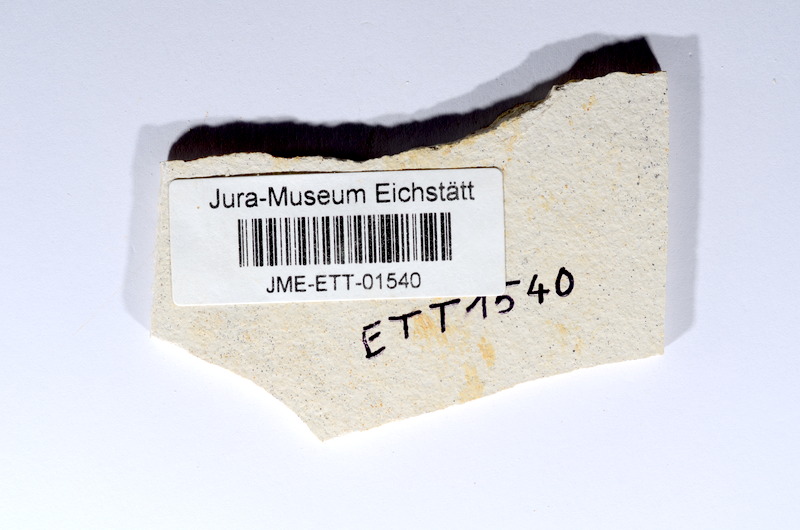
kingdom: Animalia
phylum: Chordata
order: Salmoniformes
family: Orthogonikleithridae
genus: Orthogonikleithrus
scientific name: Orthogonikleithrus hoelli
